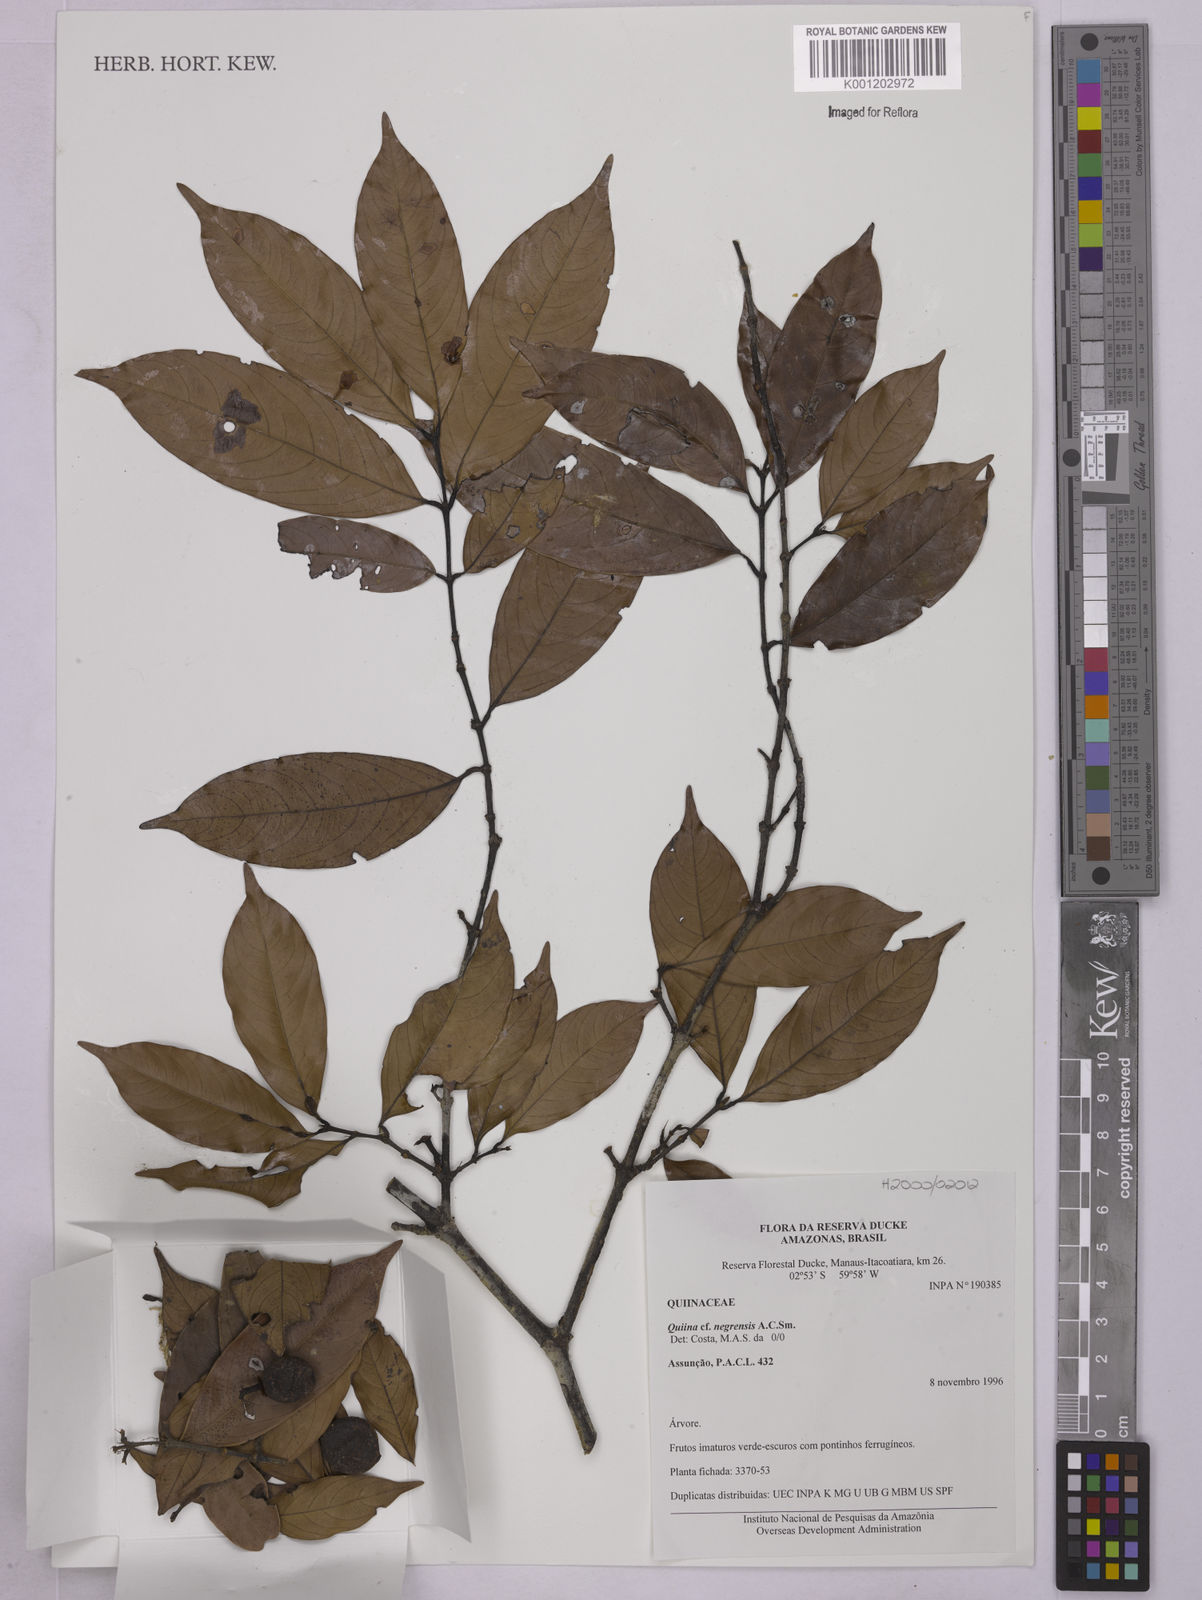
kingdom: Plantae
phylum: Tracheophyta
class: Magnoliopsida
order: Malpighiales
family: Quiinaceae
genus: Quiina
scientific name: Quiina negrensis
